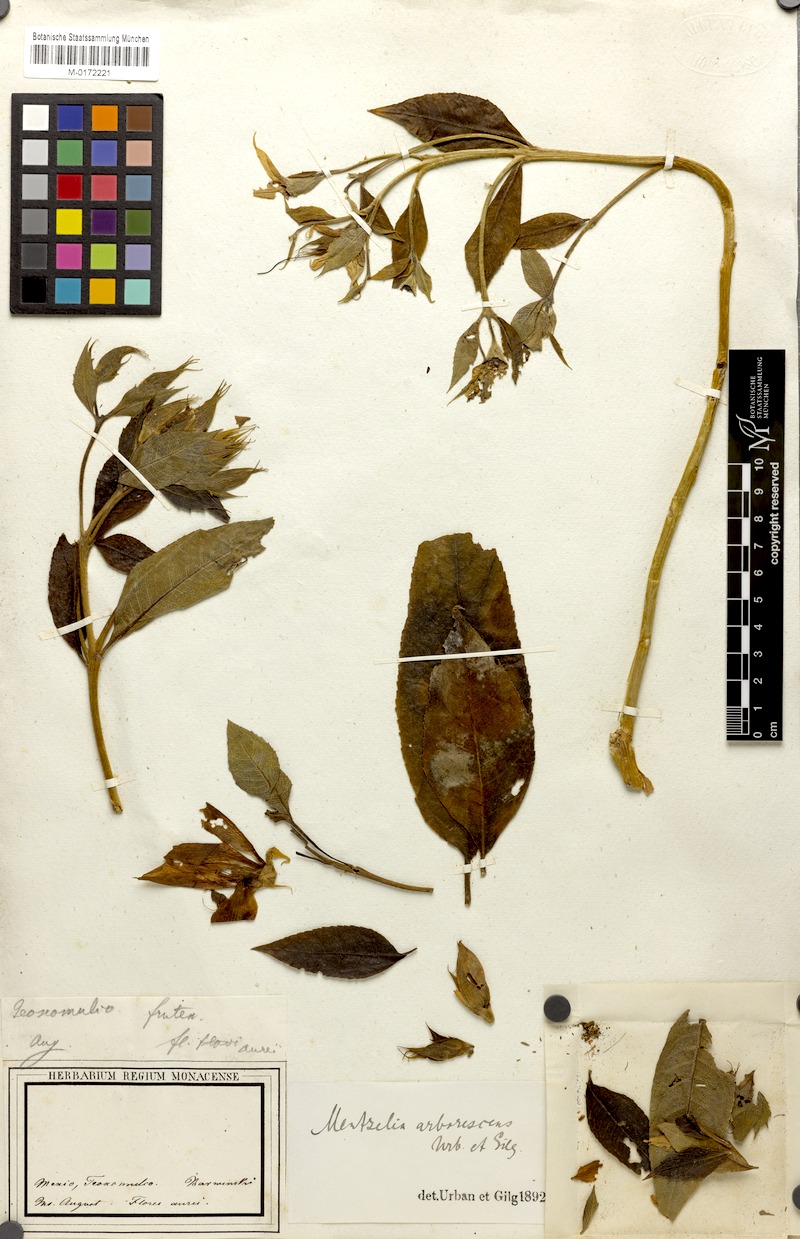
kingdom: Plantae
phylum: Tracheophyta
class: Magnoliopsida
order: Cornales
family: Loasaceae
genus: Mentzelia
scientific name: Mentzelia arborescens
